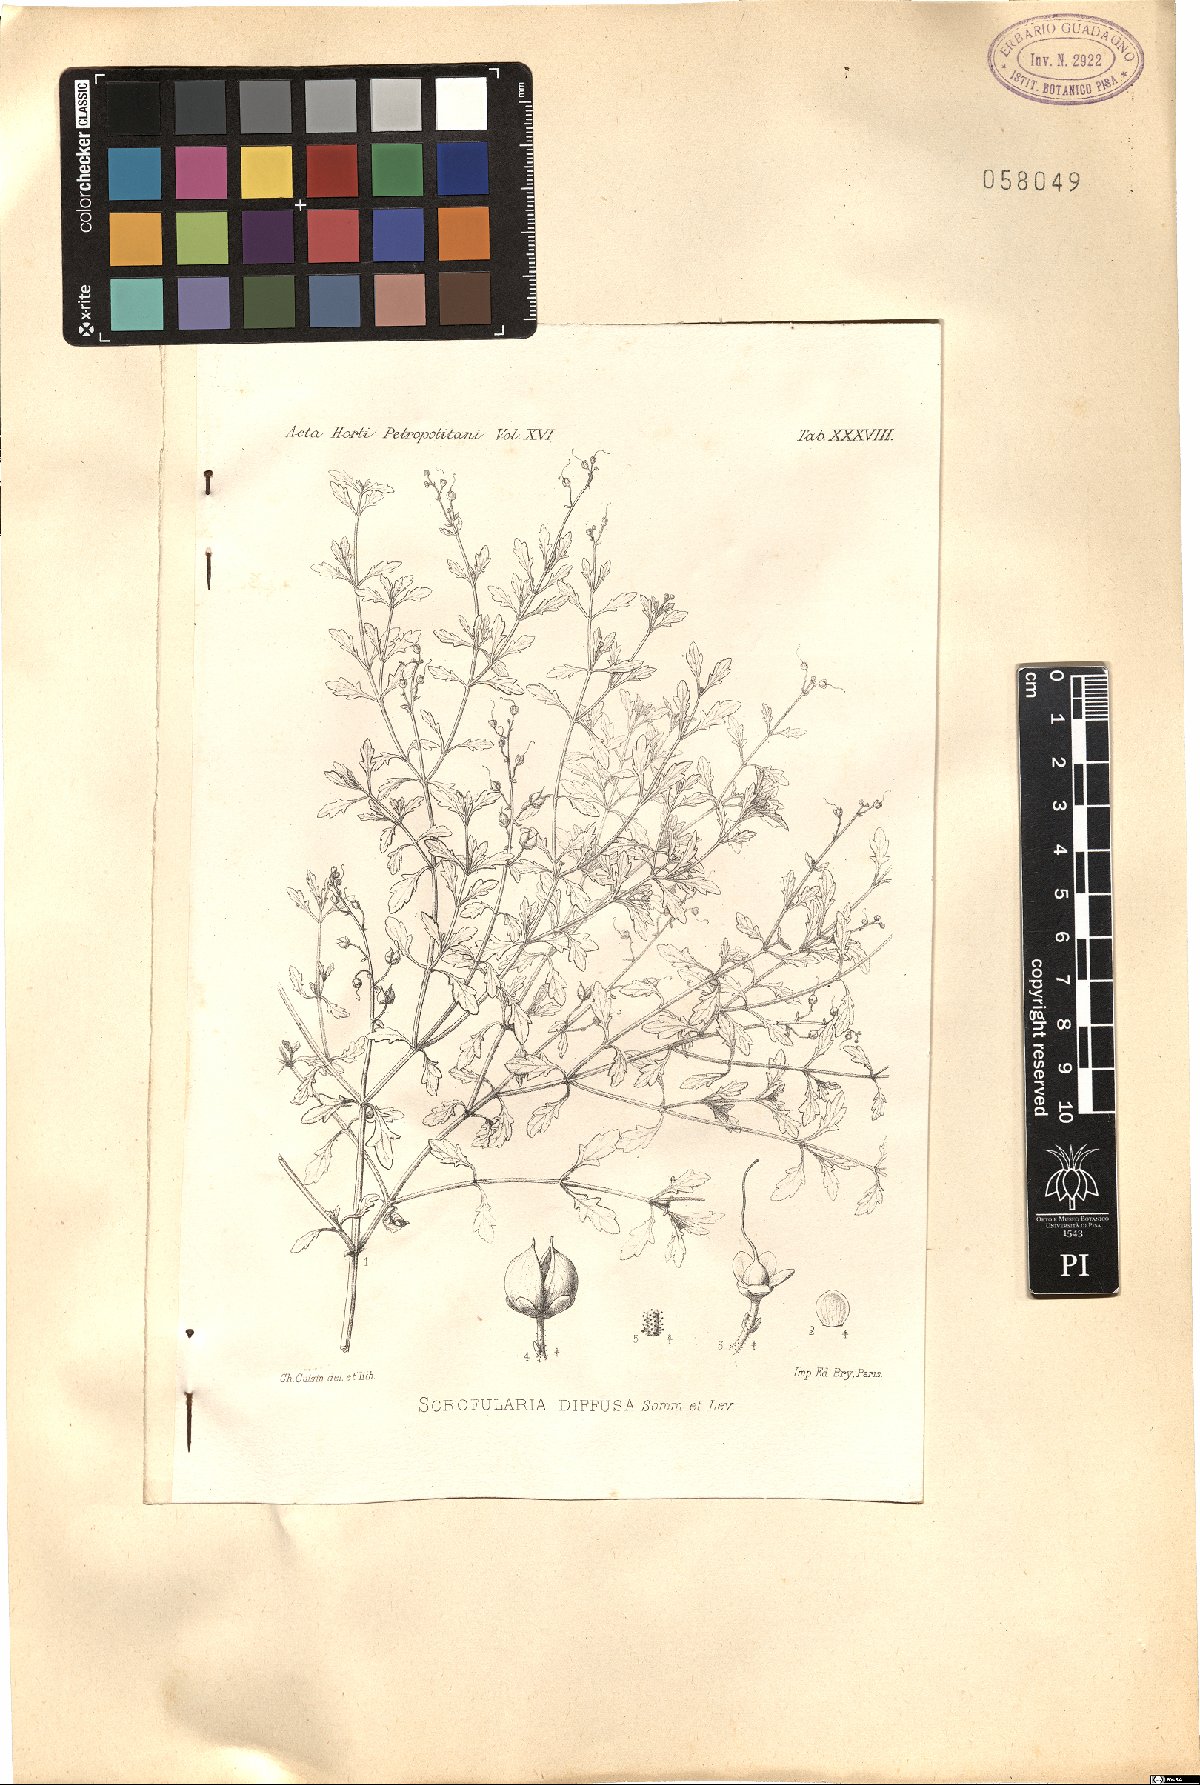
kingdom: Plantae
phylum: Tracheophyta
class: Magnoliopsida
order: Lamiales
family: Scrophulariaceae
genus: Scrophularia
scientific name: Scrophularia diffusa
